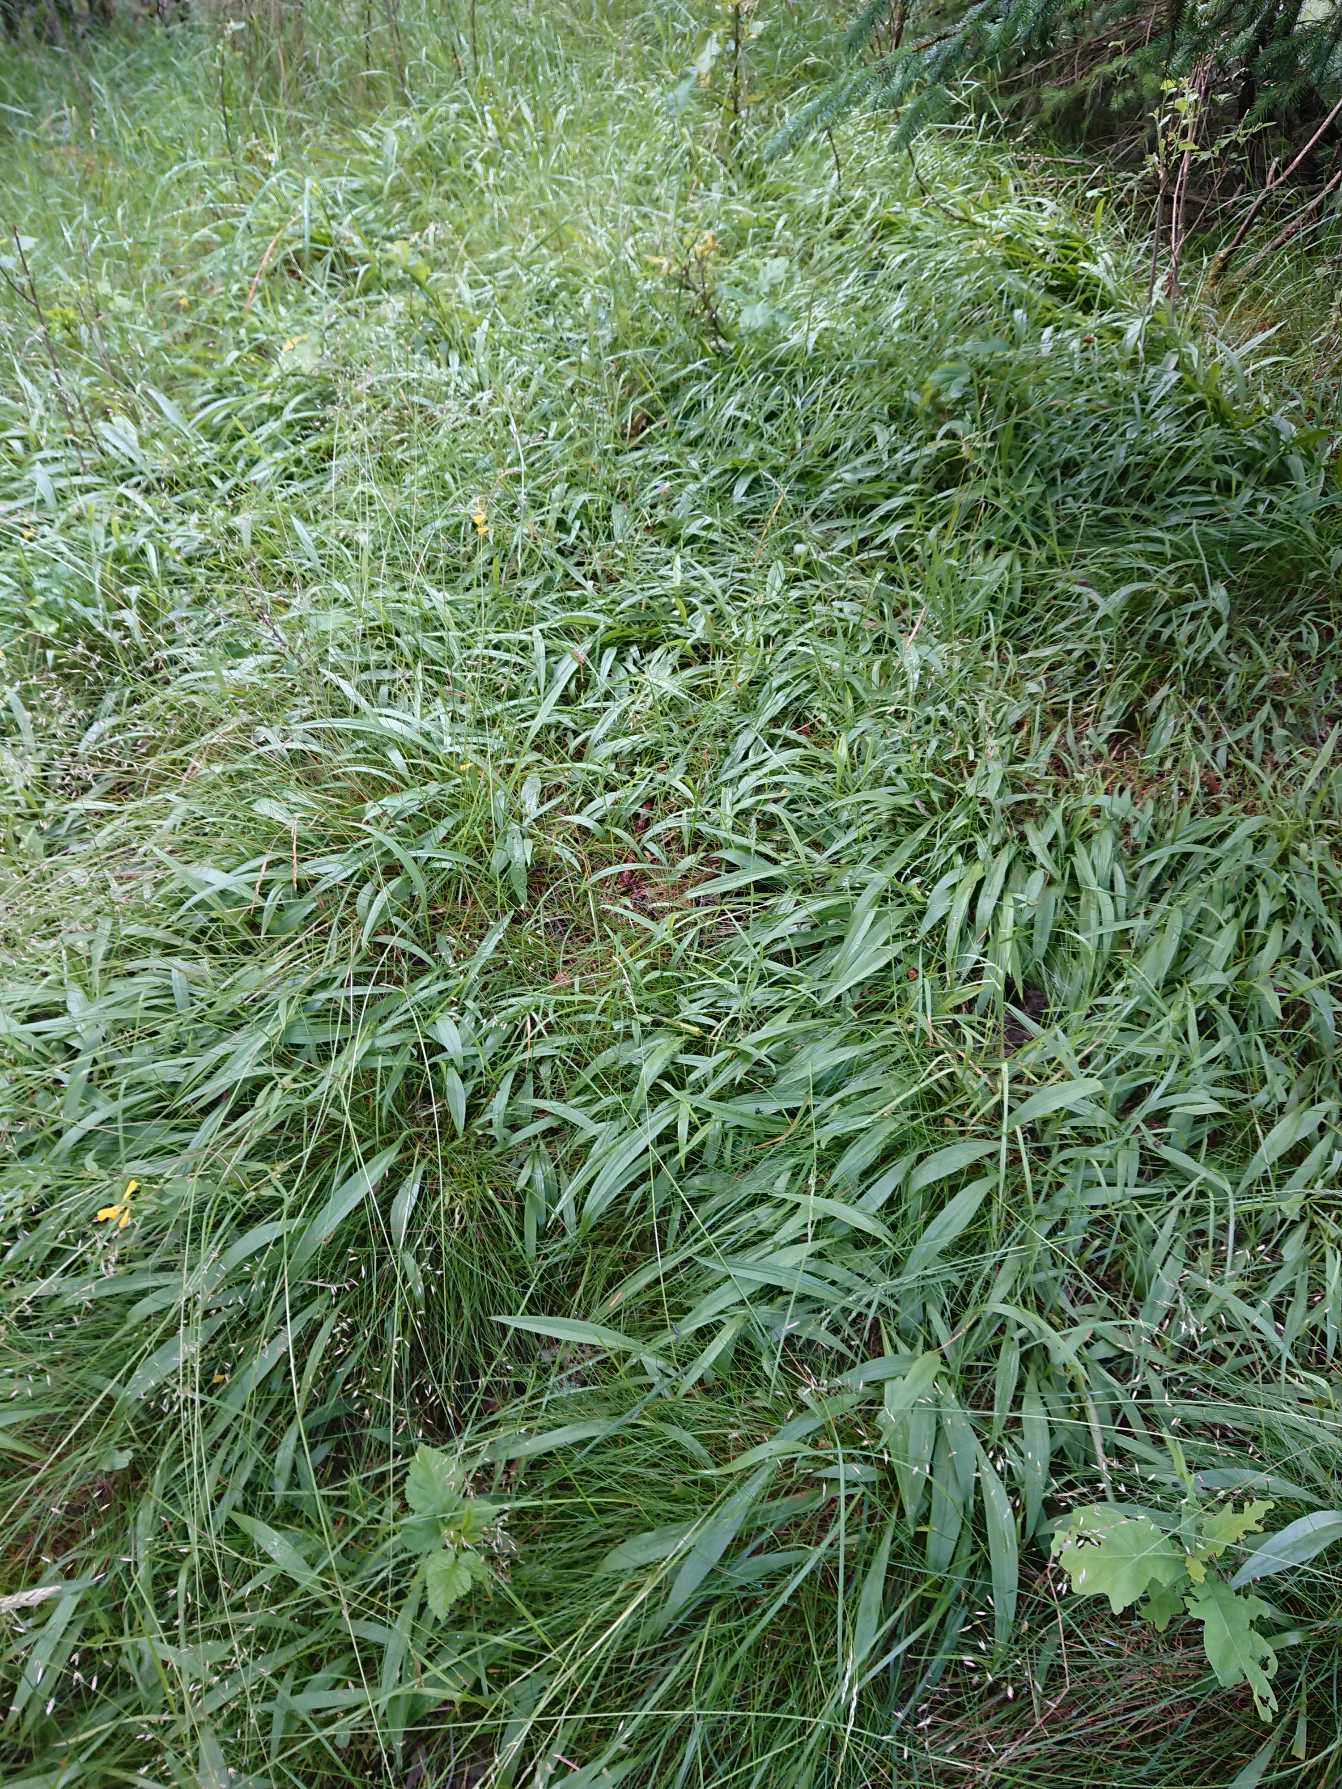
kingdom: Plantae
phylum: Tracheophyta
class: Magnoliopsida
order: Asterales
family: Asteraceae
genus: Scorzonera
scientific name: Scorzonera humilis
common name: Lav skorsoner
